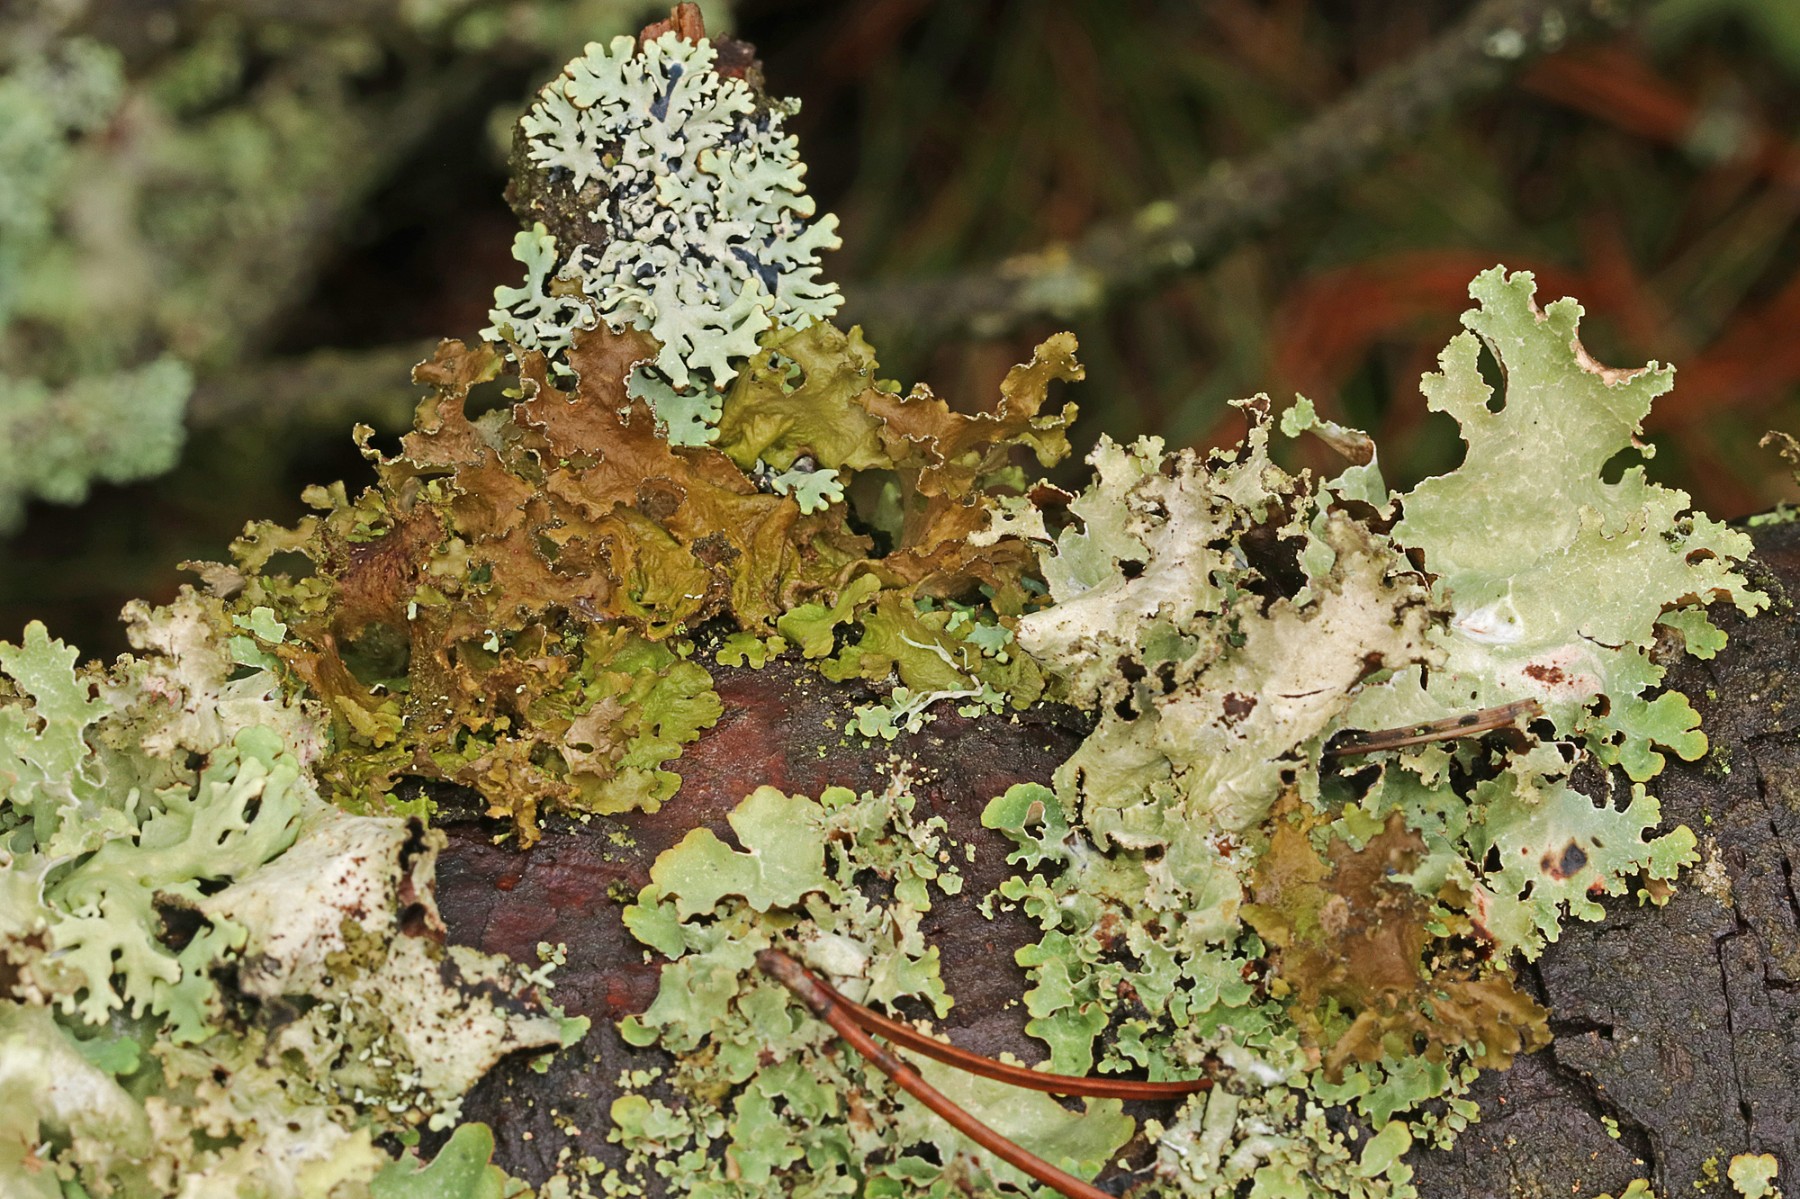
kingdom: Fungi
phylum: Ascomycota
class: Lecanoromycetes
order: Lecanorales
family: Parmeliaceae
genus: Nephromopsis
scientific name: Nephromopsis chlorophylla
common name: olivenbrun kruslav
